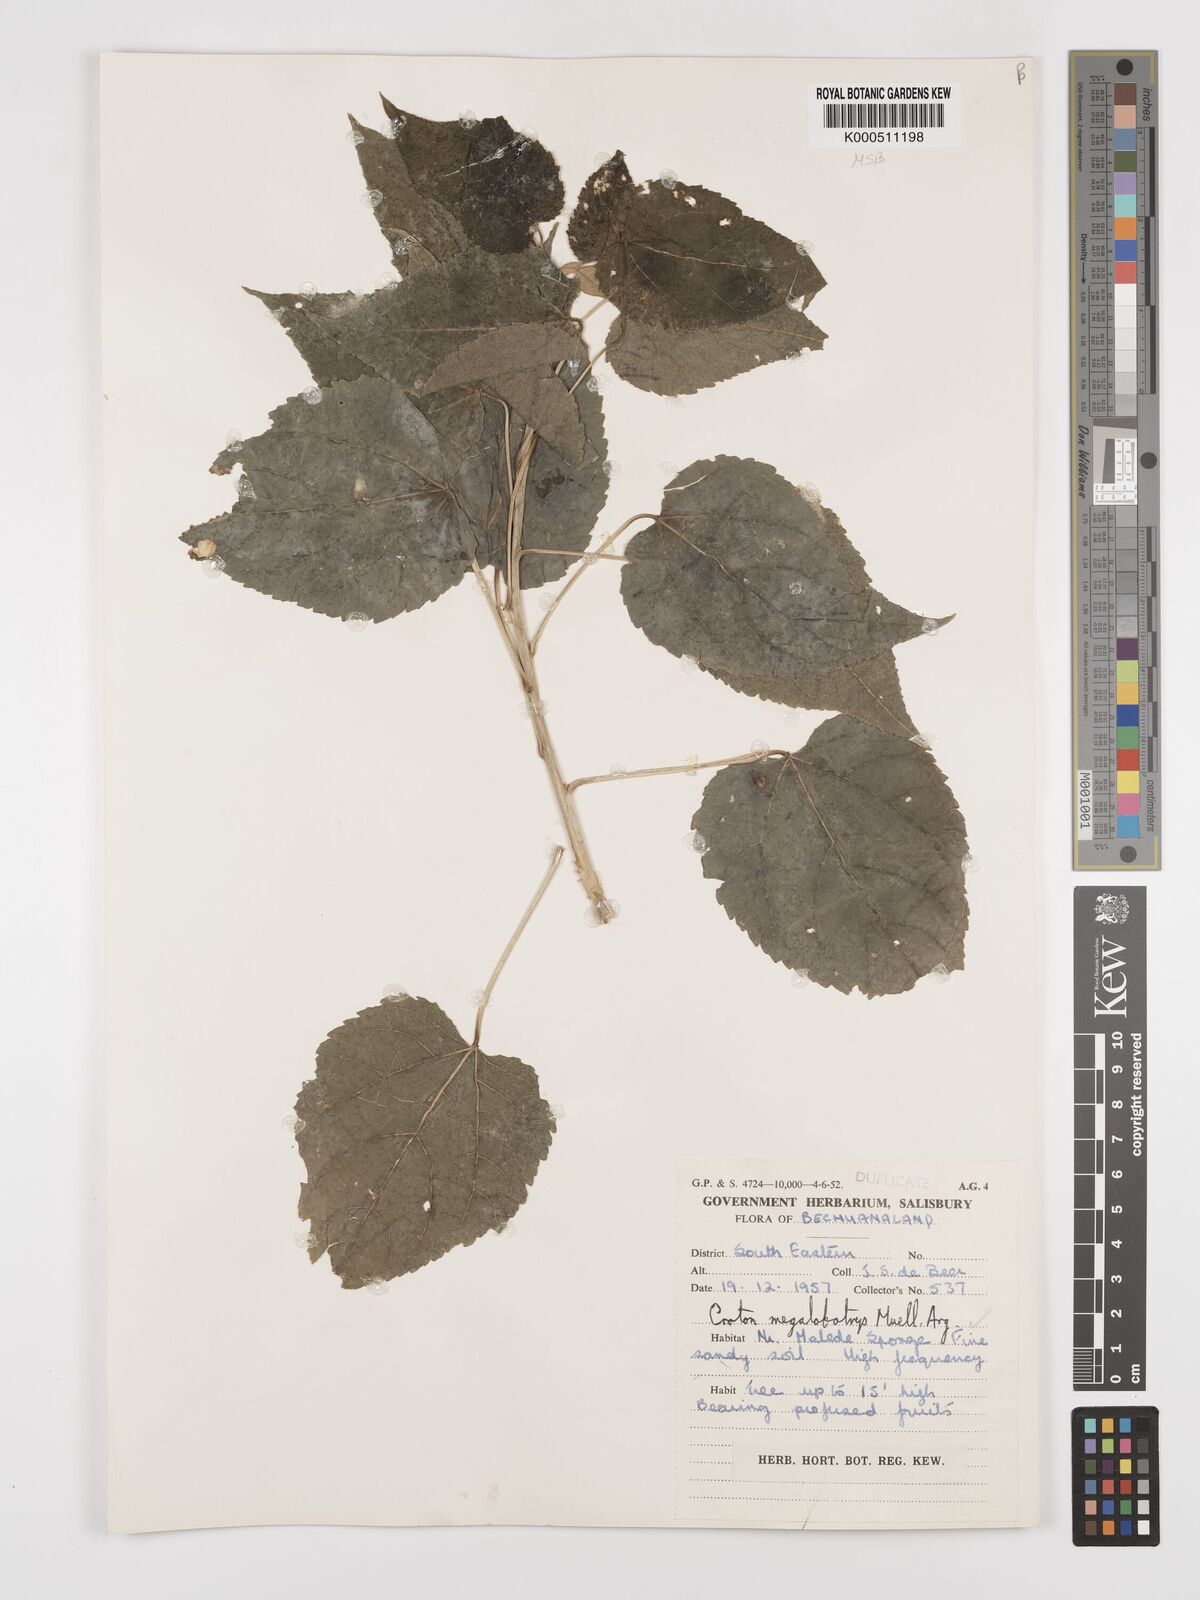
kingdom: Plantae
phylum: Tracheophyta
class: Magnoliopsida
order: Malpighiales
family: Euphorbiaceae
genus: Croton
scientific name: Croton
